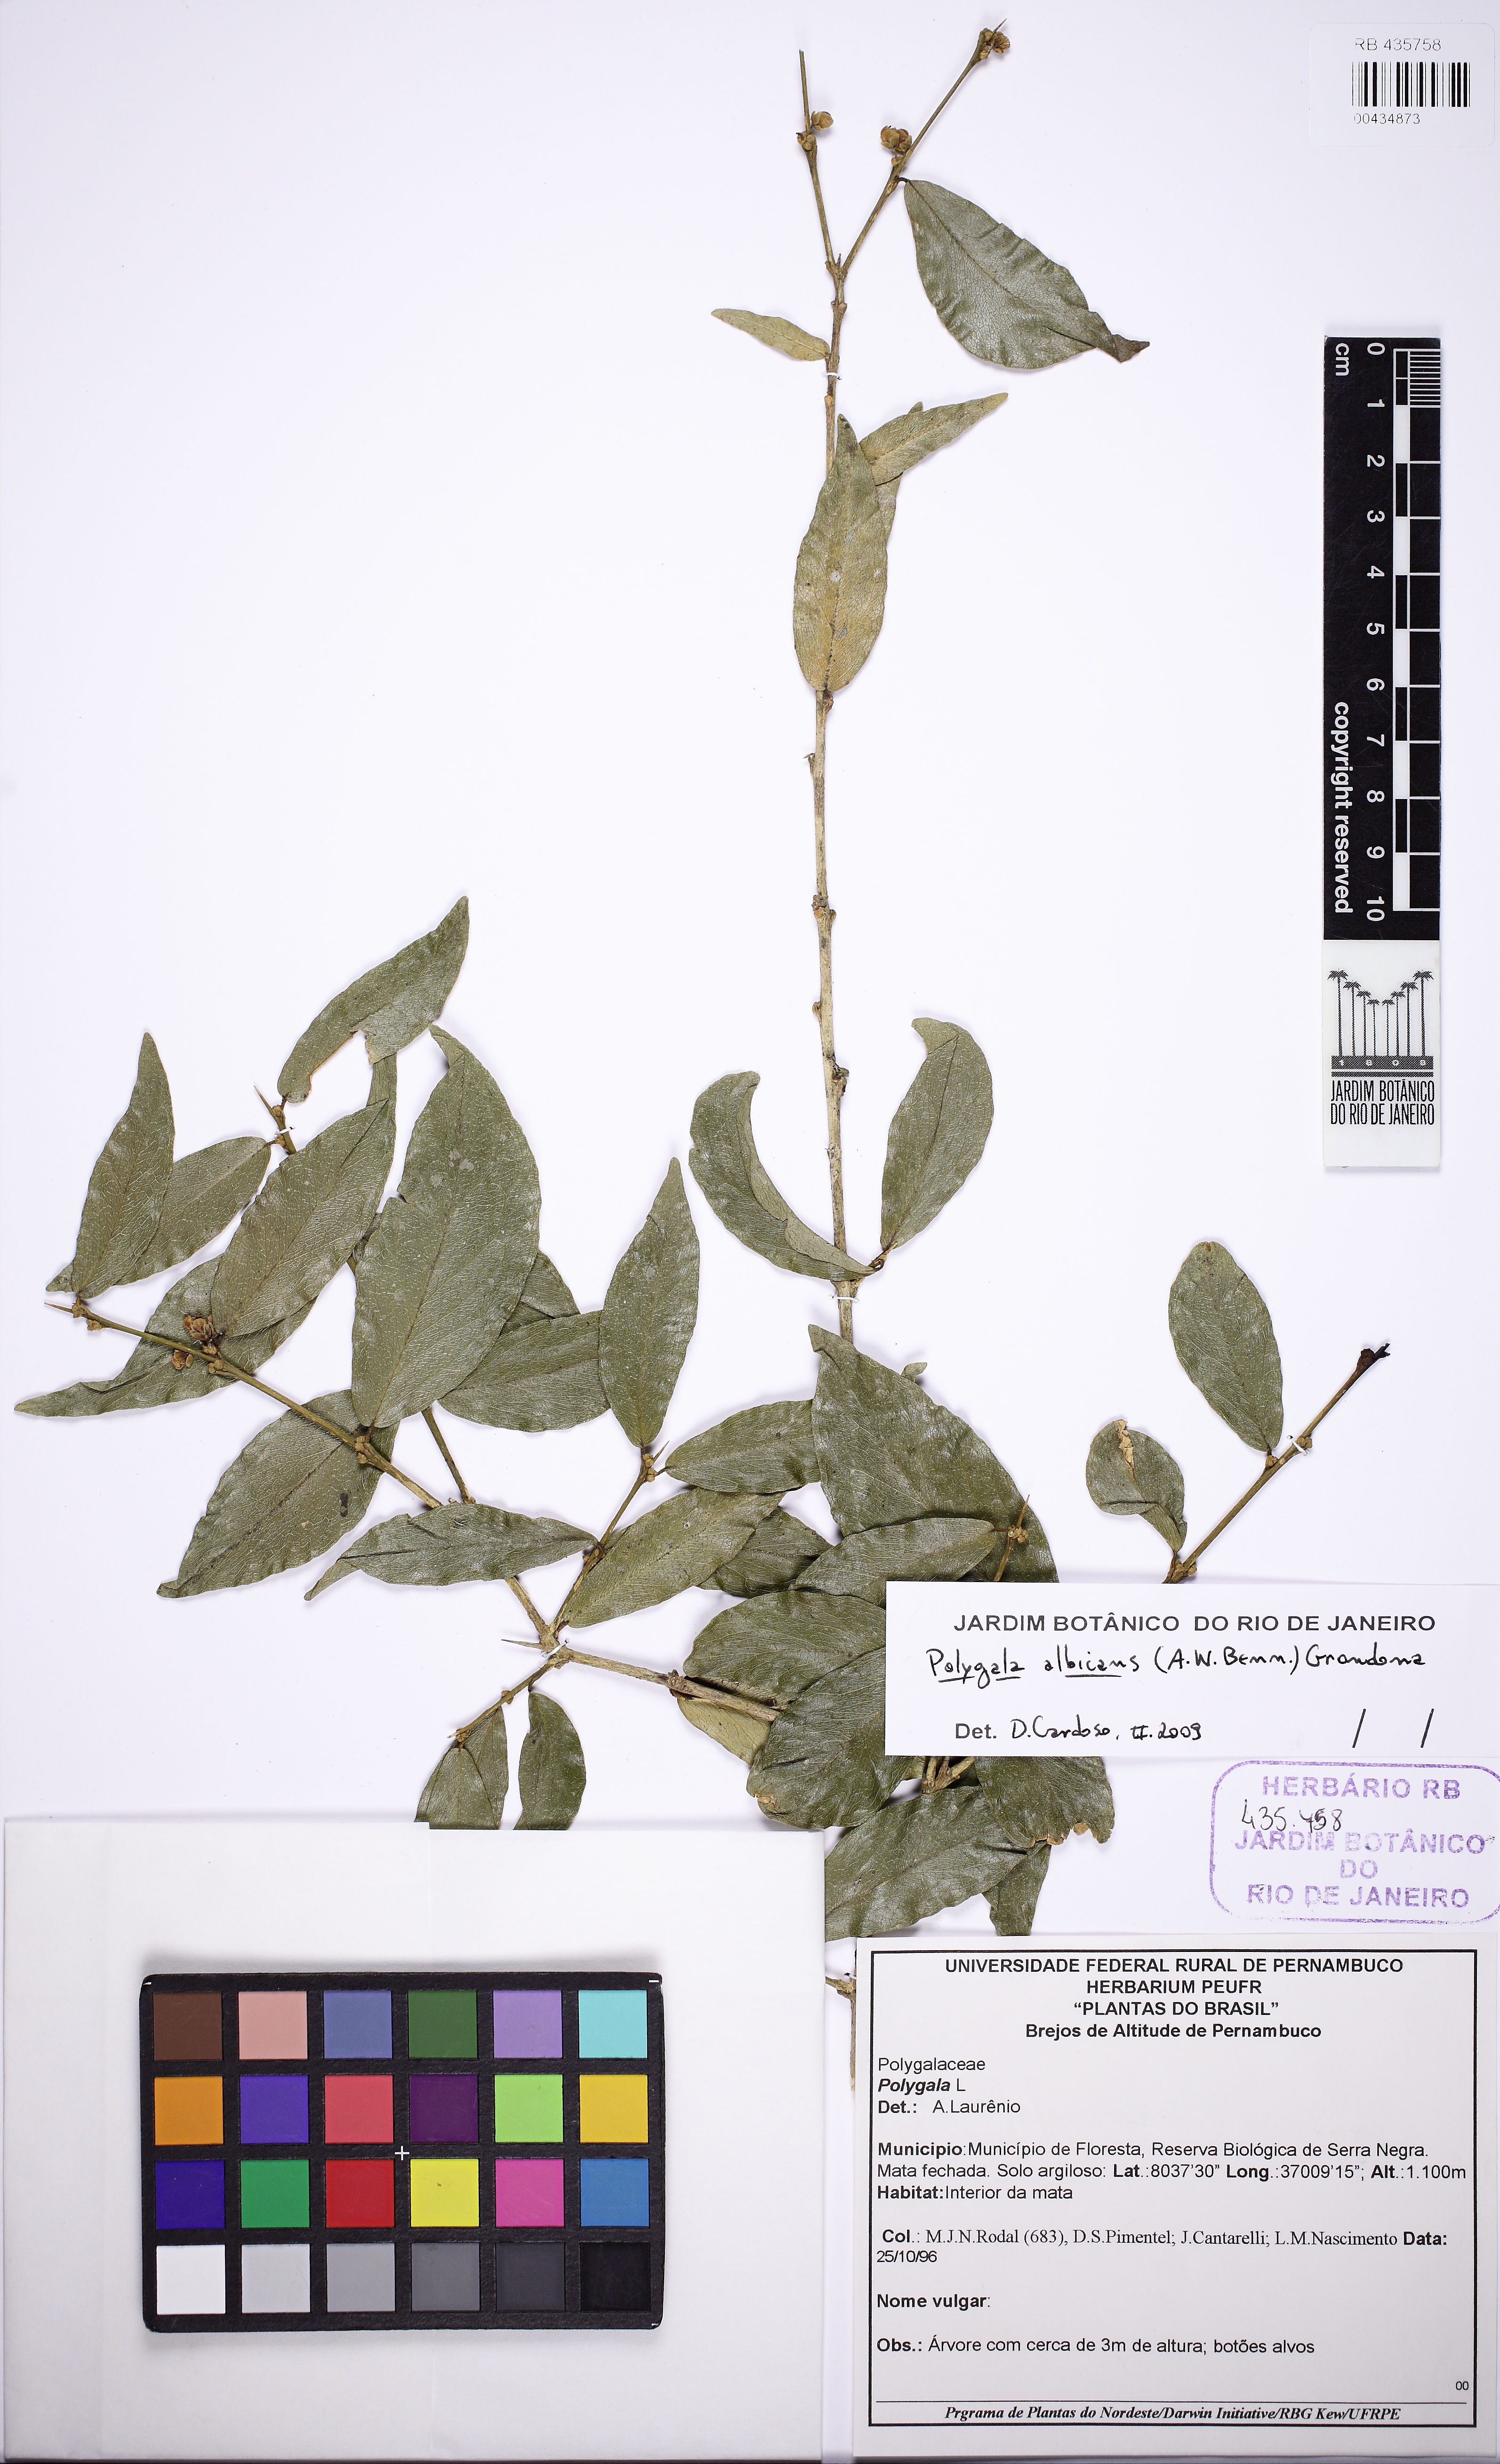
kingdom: Plantae
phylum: Tracheophyta
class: Magnoliopsida
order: Fabales
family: Polygalaceae
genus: Acanthocladus
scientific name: Acanthocladus dichromus
